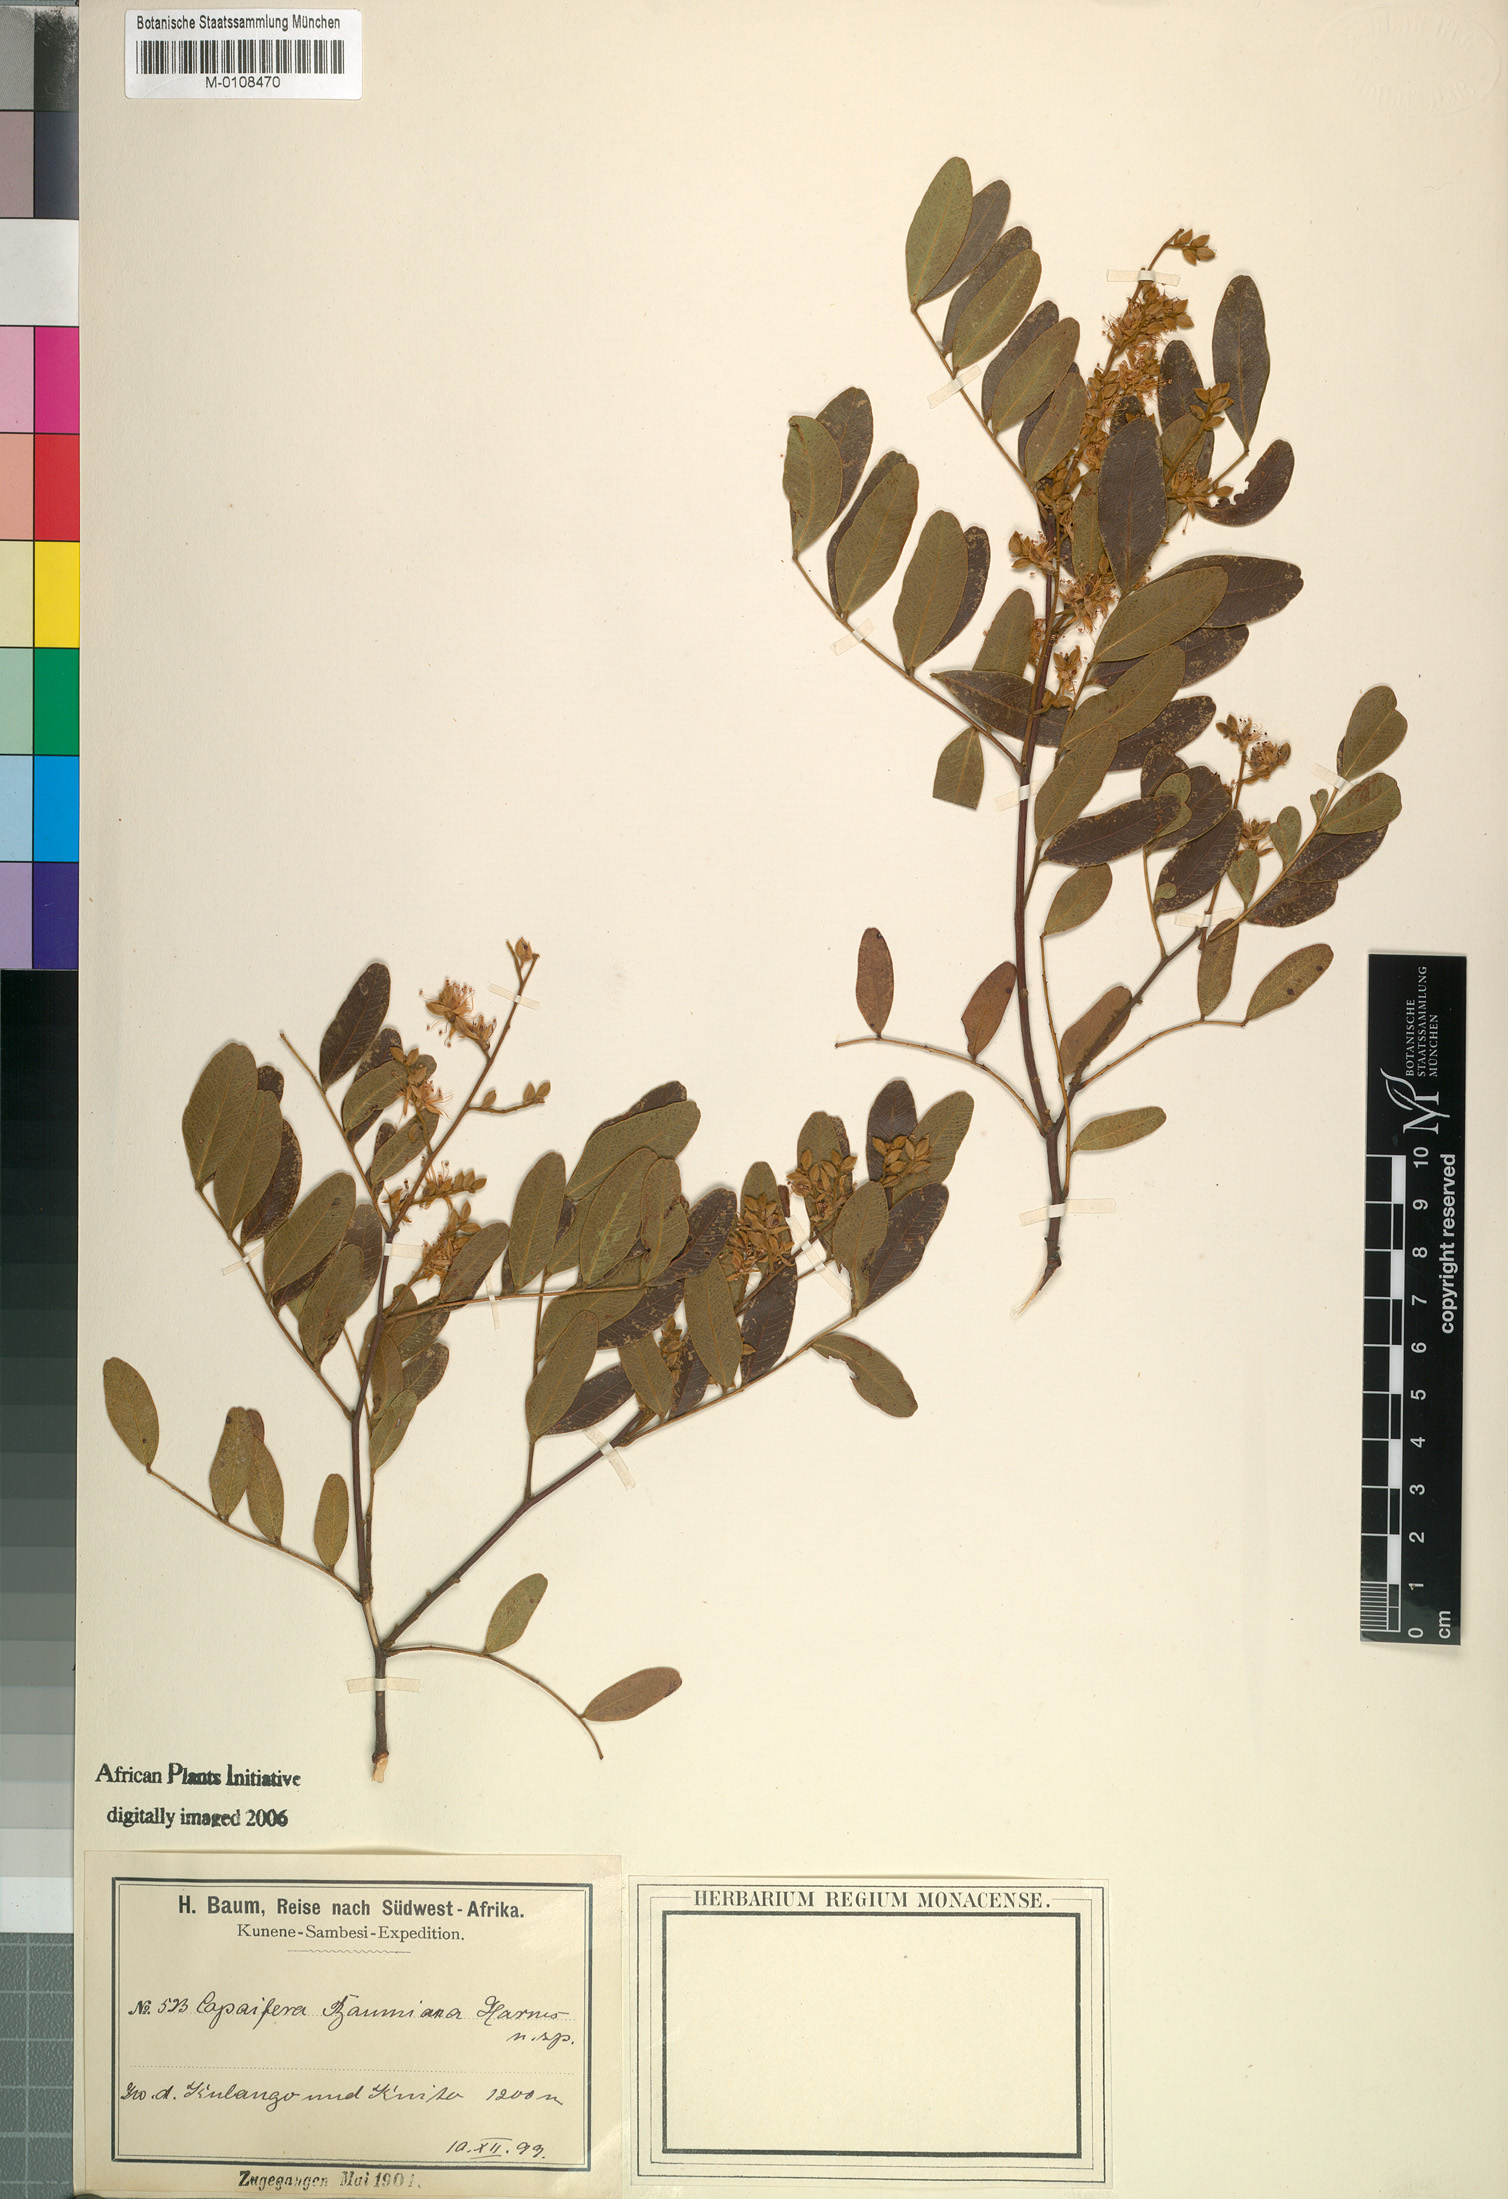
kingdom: Plantae
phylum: Tracheophyta
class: Magnoliopsida
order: Fabales
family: Fabaceae
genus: Copaifera
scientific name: Copaifera baumiana
